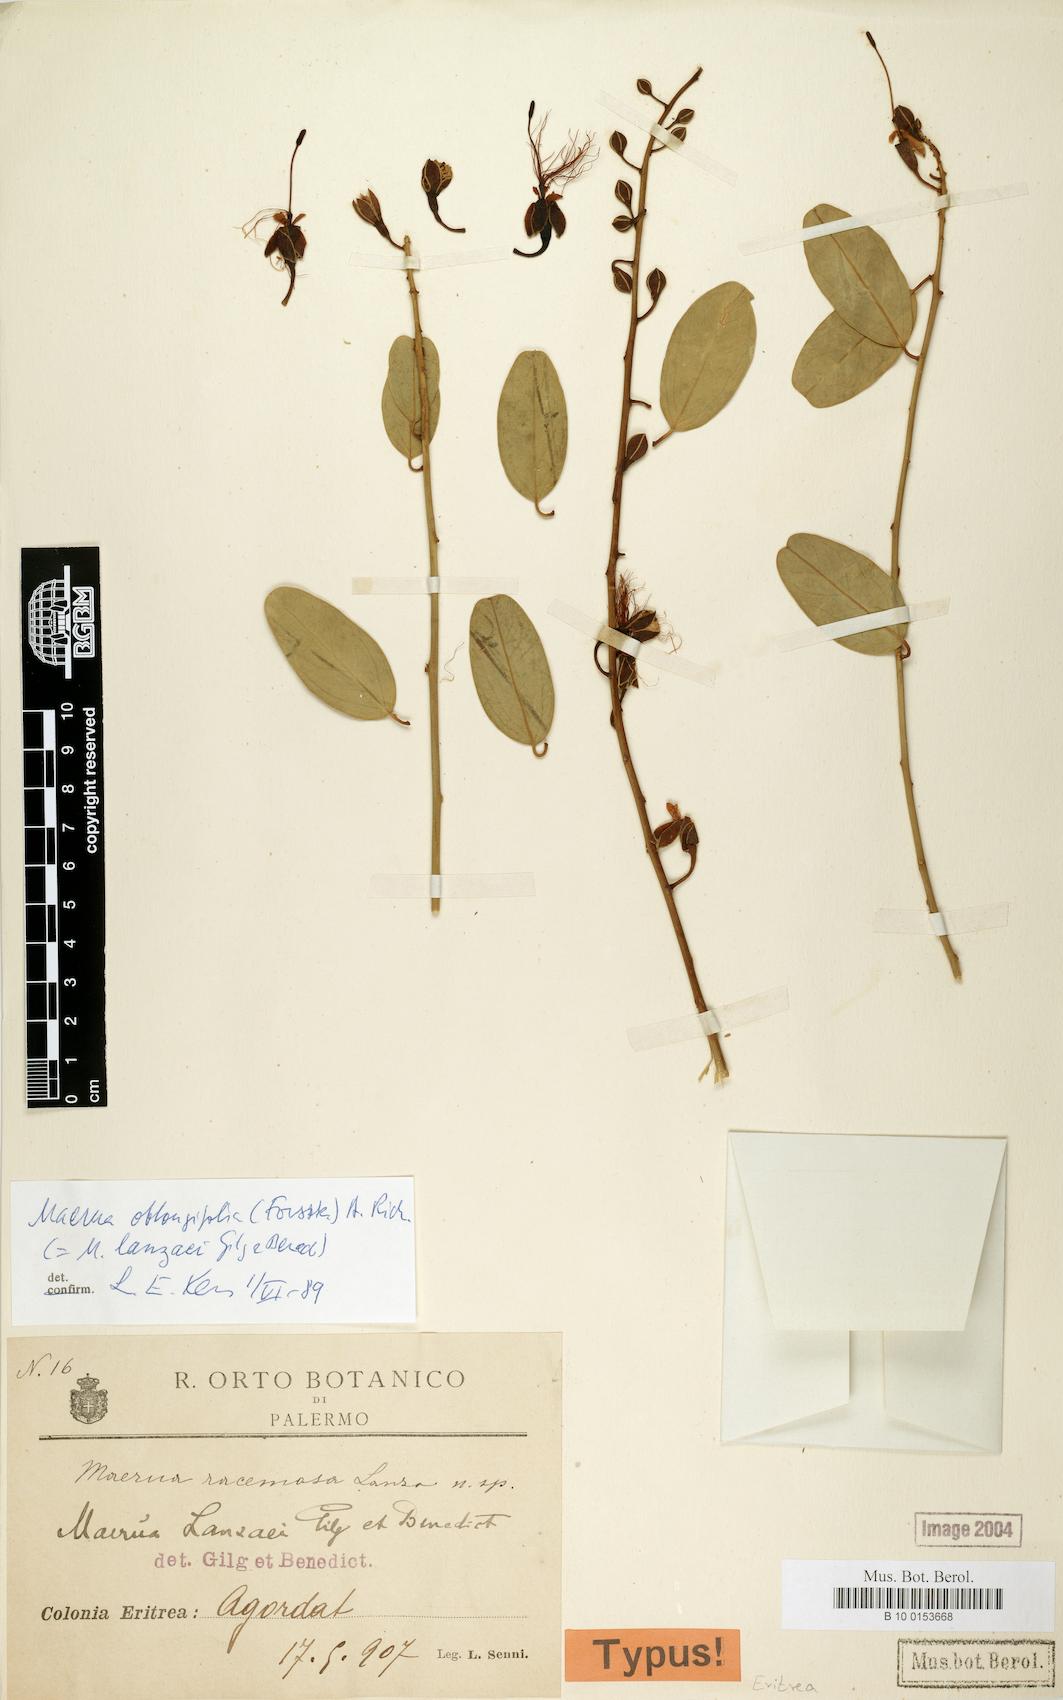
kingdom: Plantae
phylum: Tracheophyta
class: Magnoliopsida
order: Brassicales
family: Capparaceae
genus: Maerua
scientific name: Maerua oblongifolia
